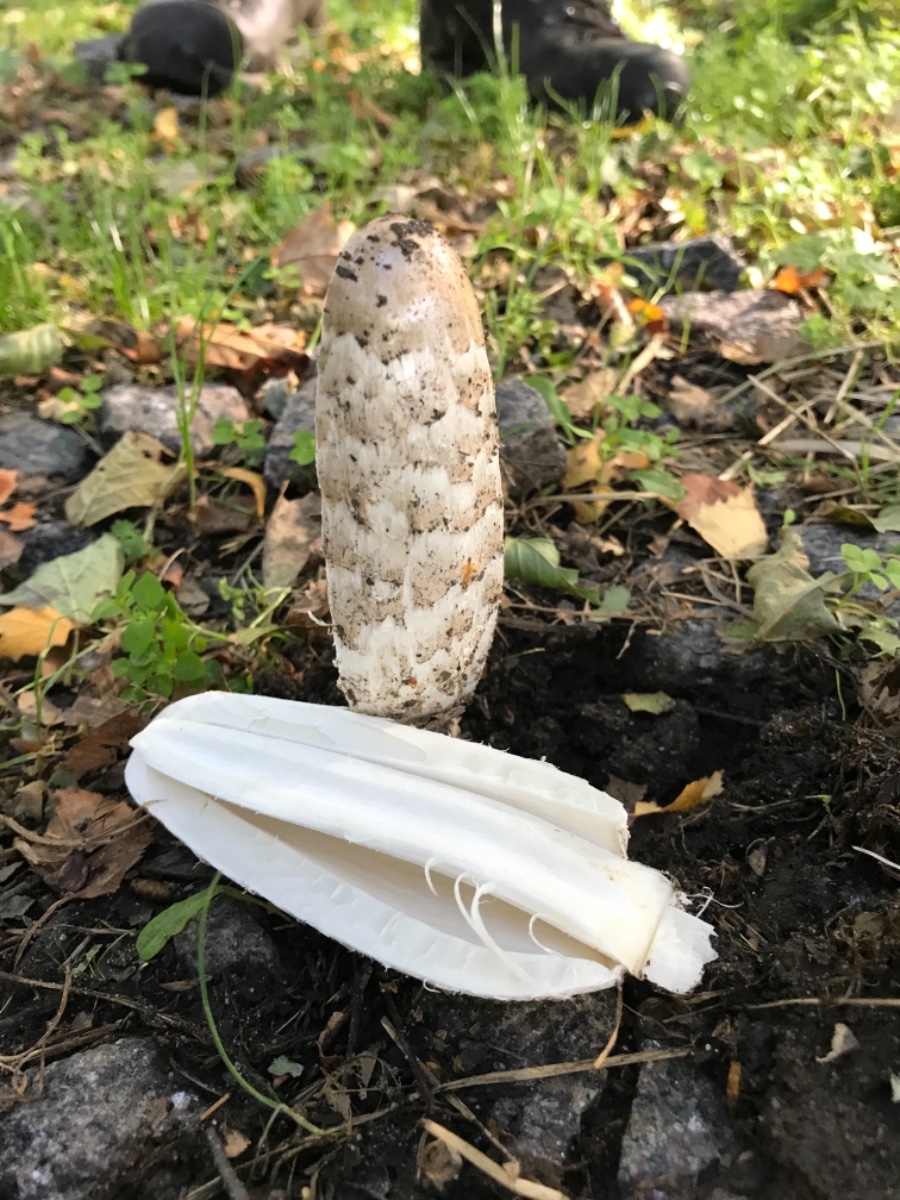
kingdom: Fungi
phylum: Basidiomycota
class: Agaricomycetes
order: Agaricales
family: Agaricaceae
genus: Coprinus
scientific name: Coprinus comatus
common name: stor parykhat
